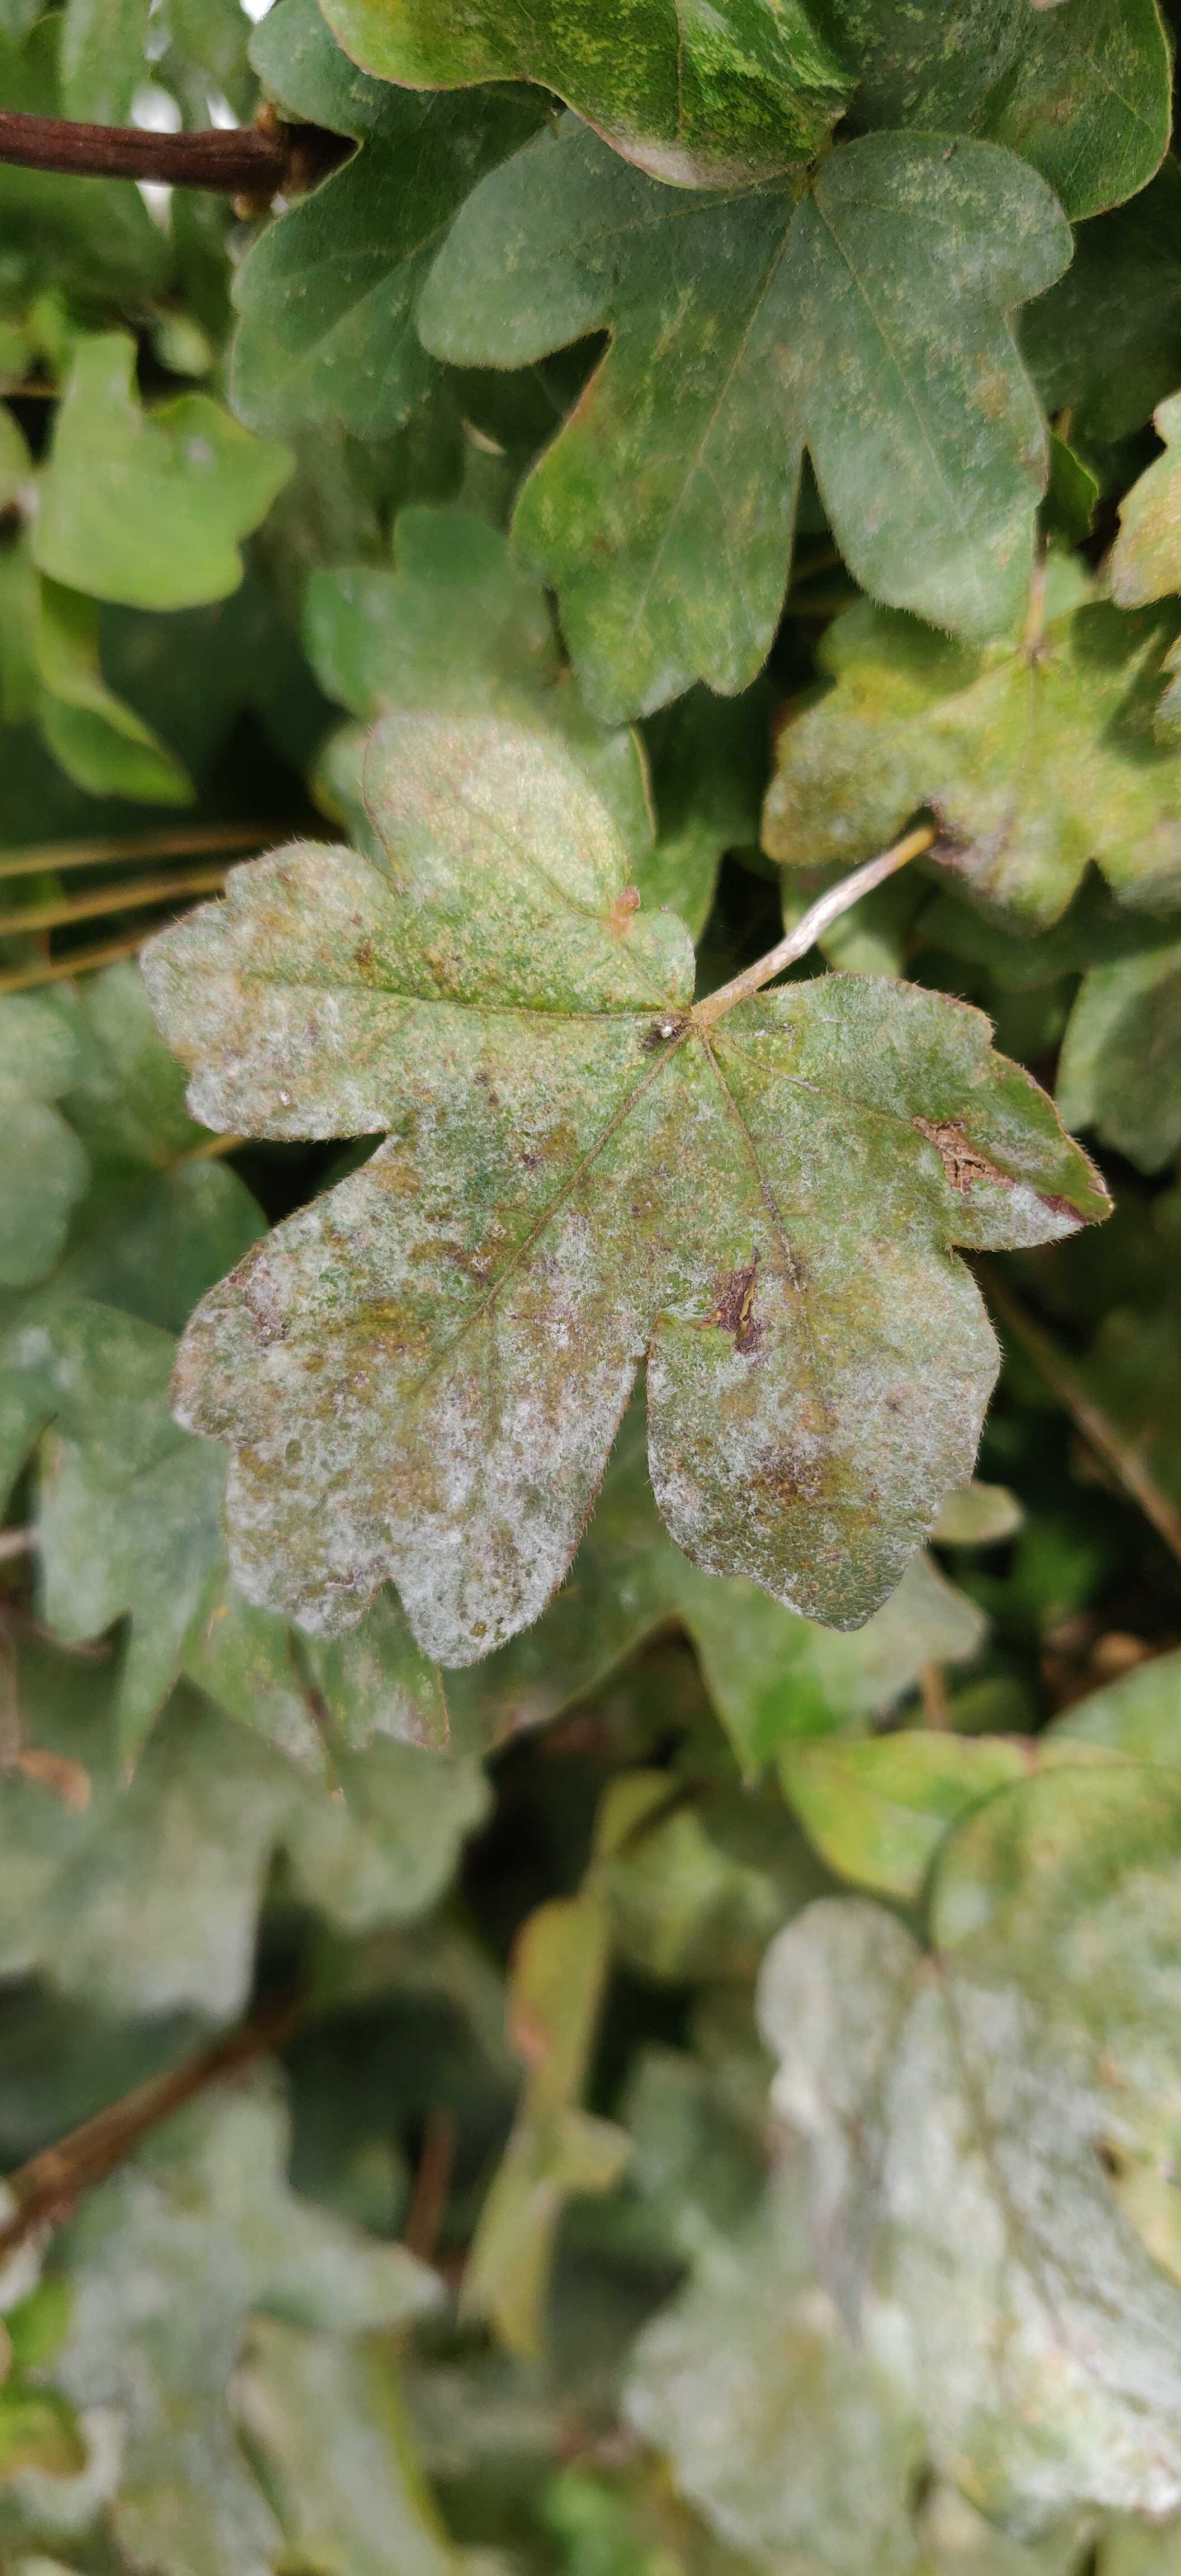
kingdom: Fungi
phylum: Ascomycota
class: Leotiomycetes
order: Helotiales
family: Erysiphaceae
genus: Sawadaea
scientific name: Sawadaea bicornis
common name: Maple mildew
